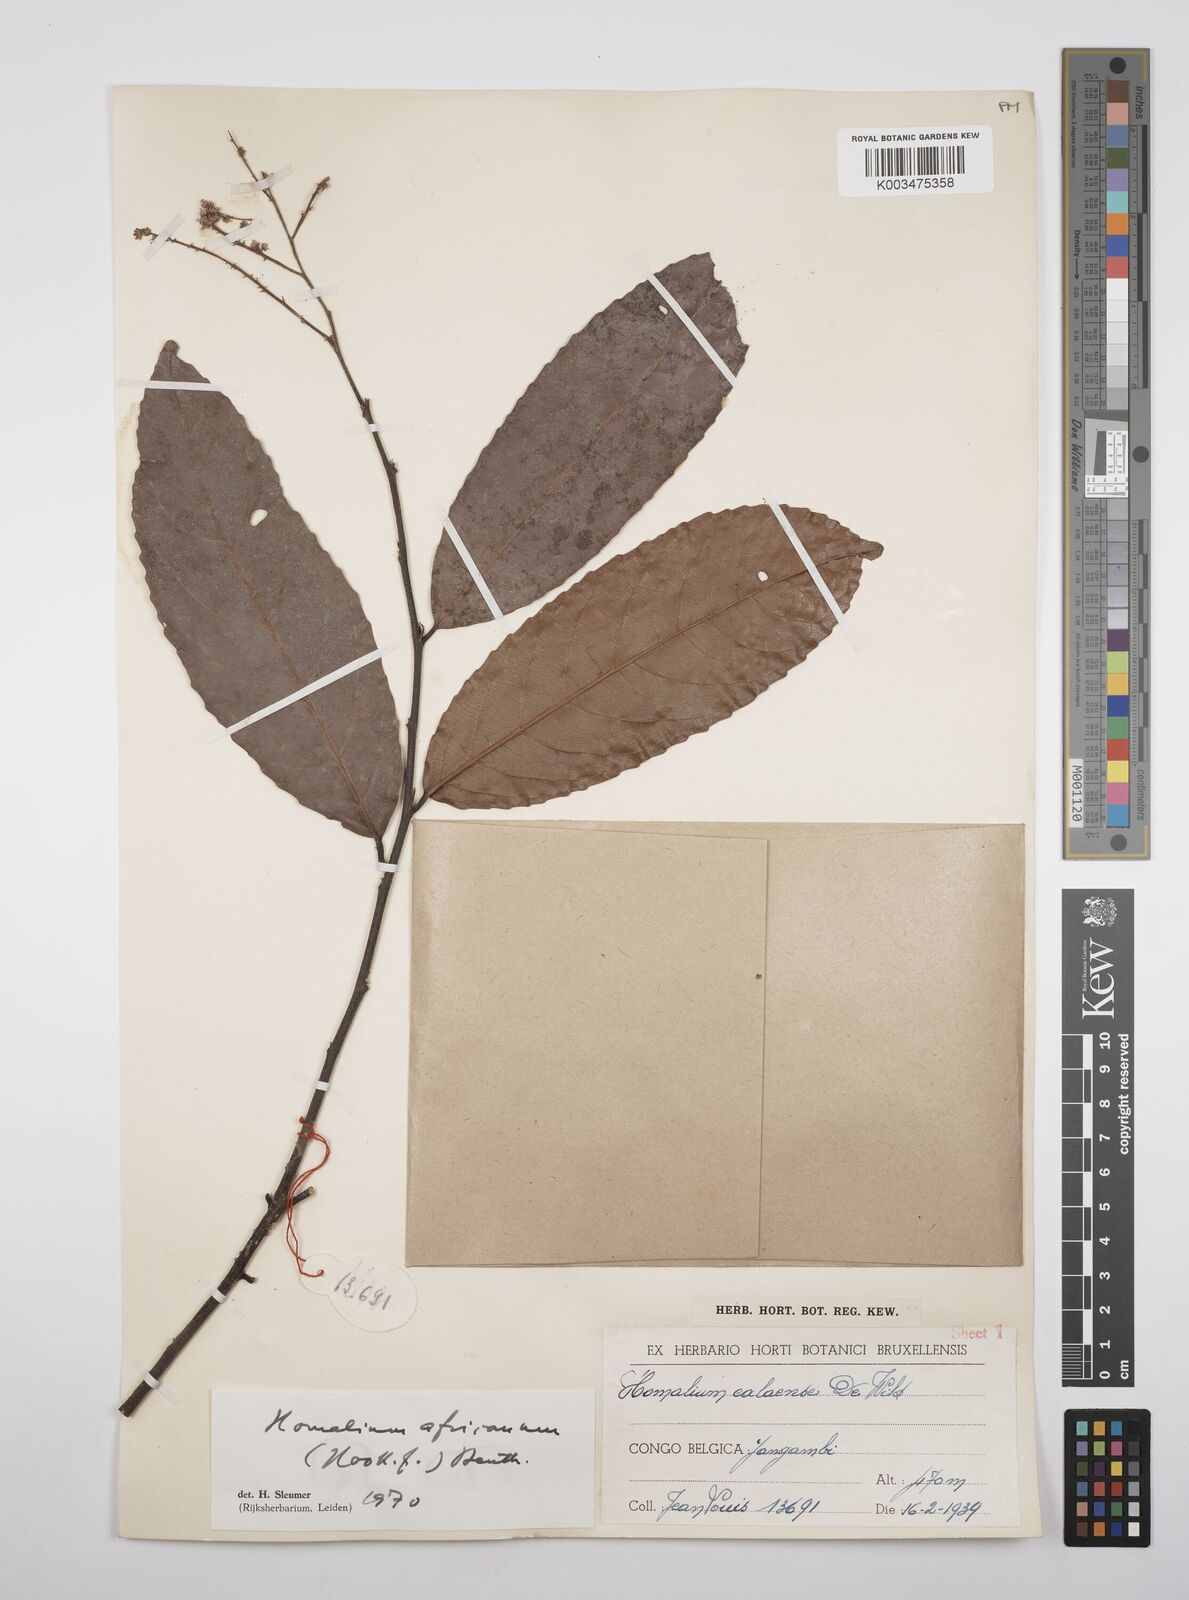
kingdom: Plantae
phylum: Tracheophyta
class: Magnoliopsida
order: Malpighiales
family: Salicaceae
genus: Homalium
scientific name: Homalium africanum
